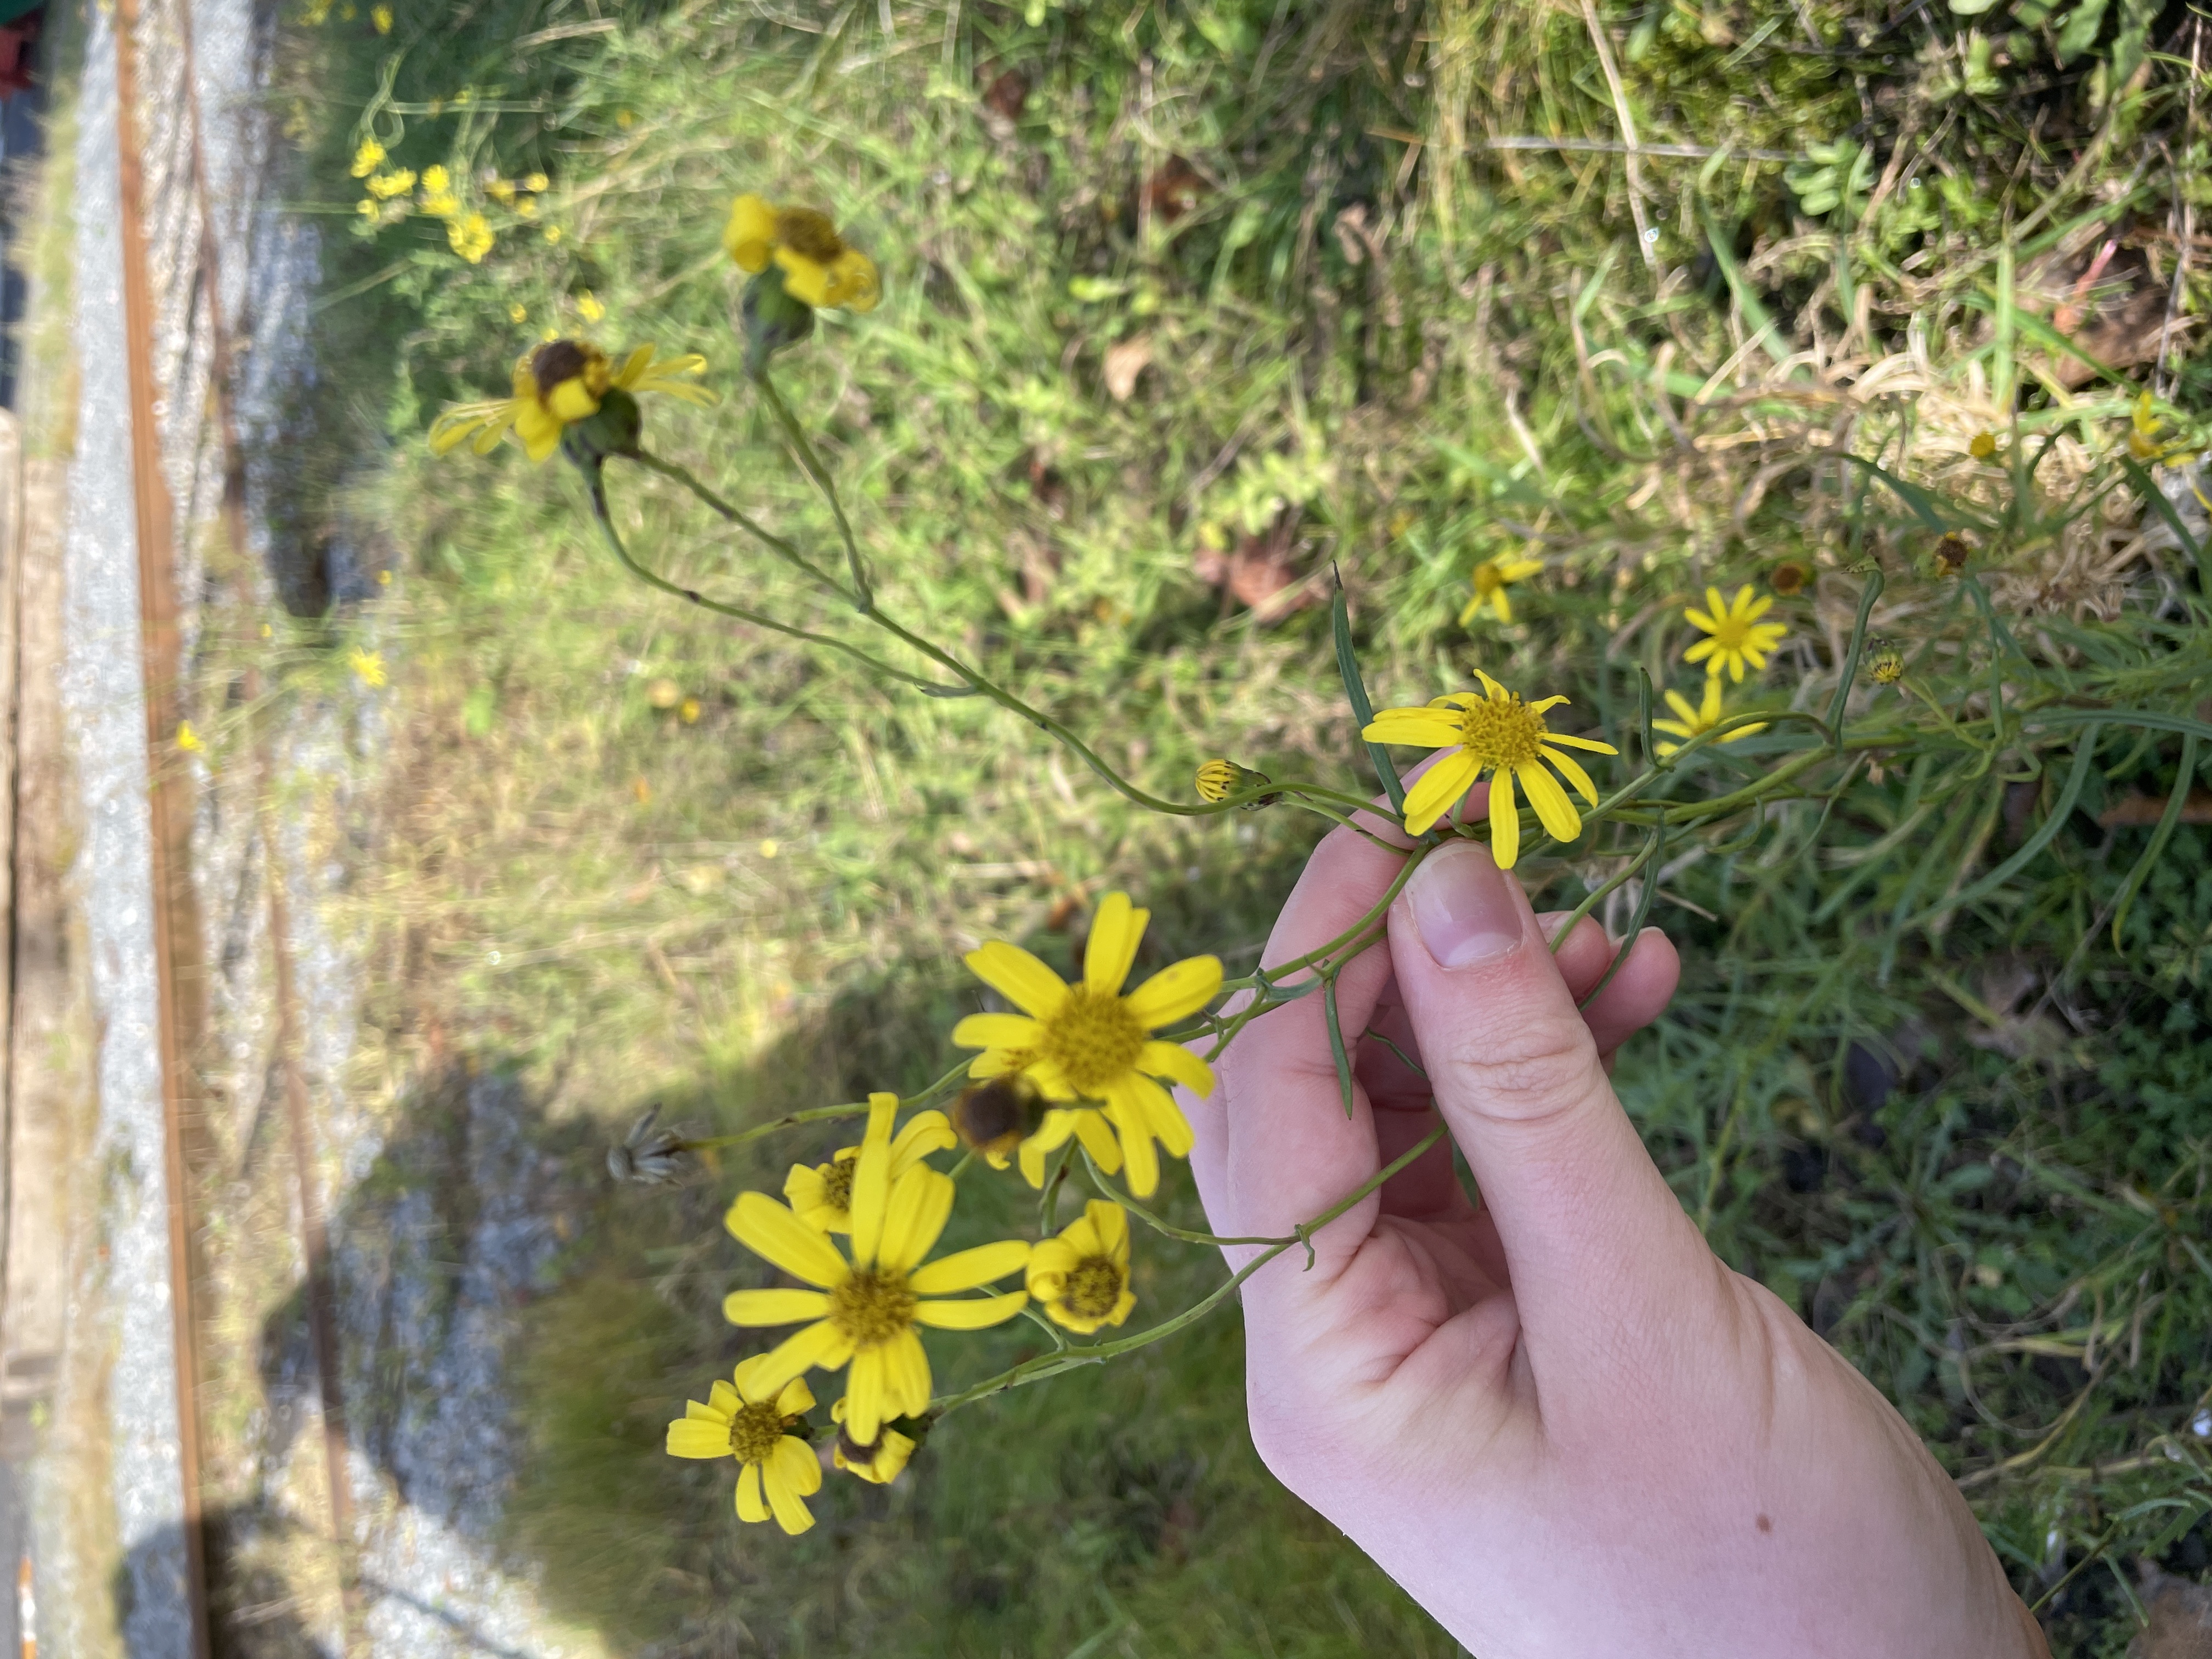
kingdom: Plantae
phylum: Tracheophyta
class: Magnoliopsida
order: Asterales
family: Asteraceae
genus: Senecio
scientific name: Senecio inaequidens
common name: Smalbladet brandbæger
